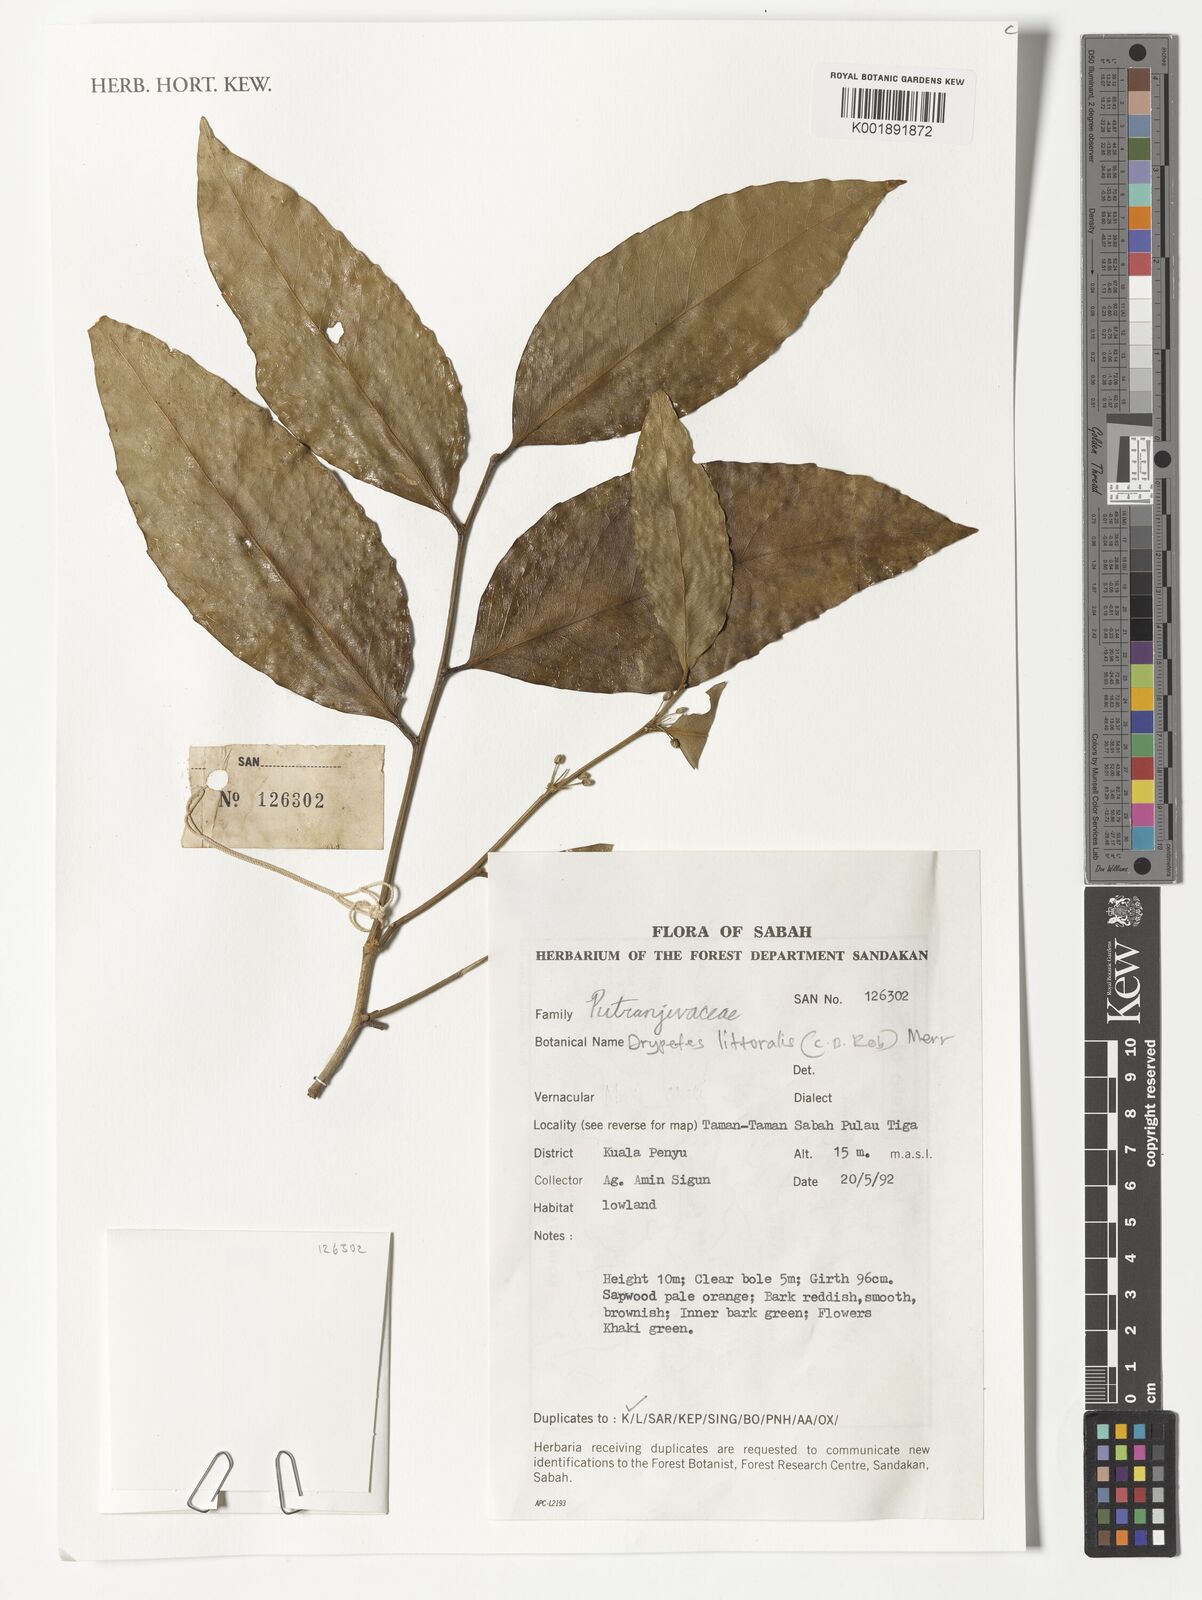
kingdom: Plantae
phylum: Tracheophyta
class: Magnoliopsida
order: Malpighiales
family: Putranjivaceae
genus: Drypetes
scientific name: Drypetes littoralis
